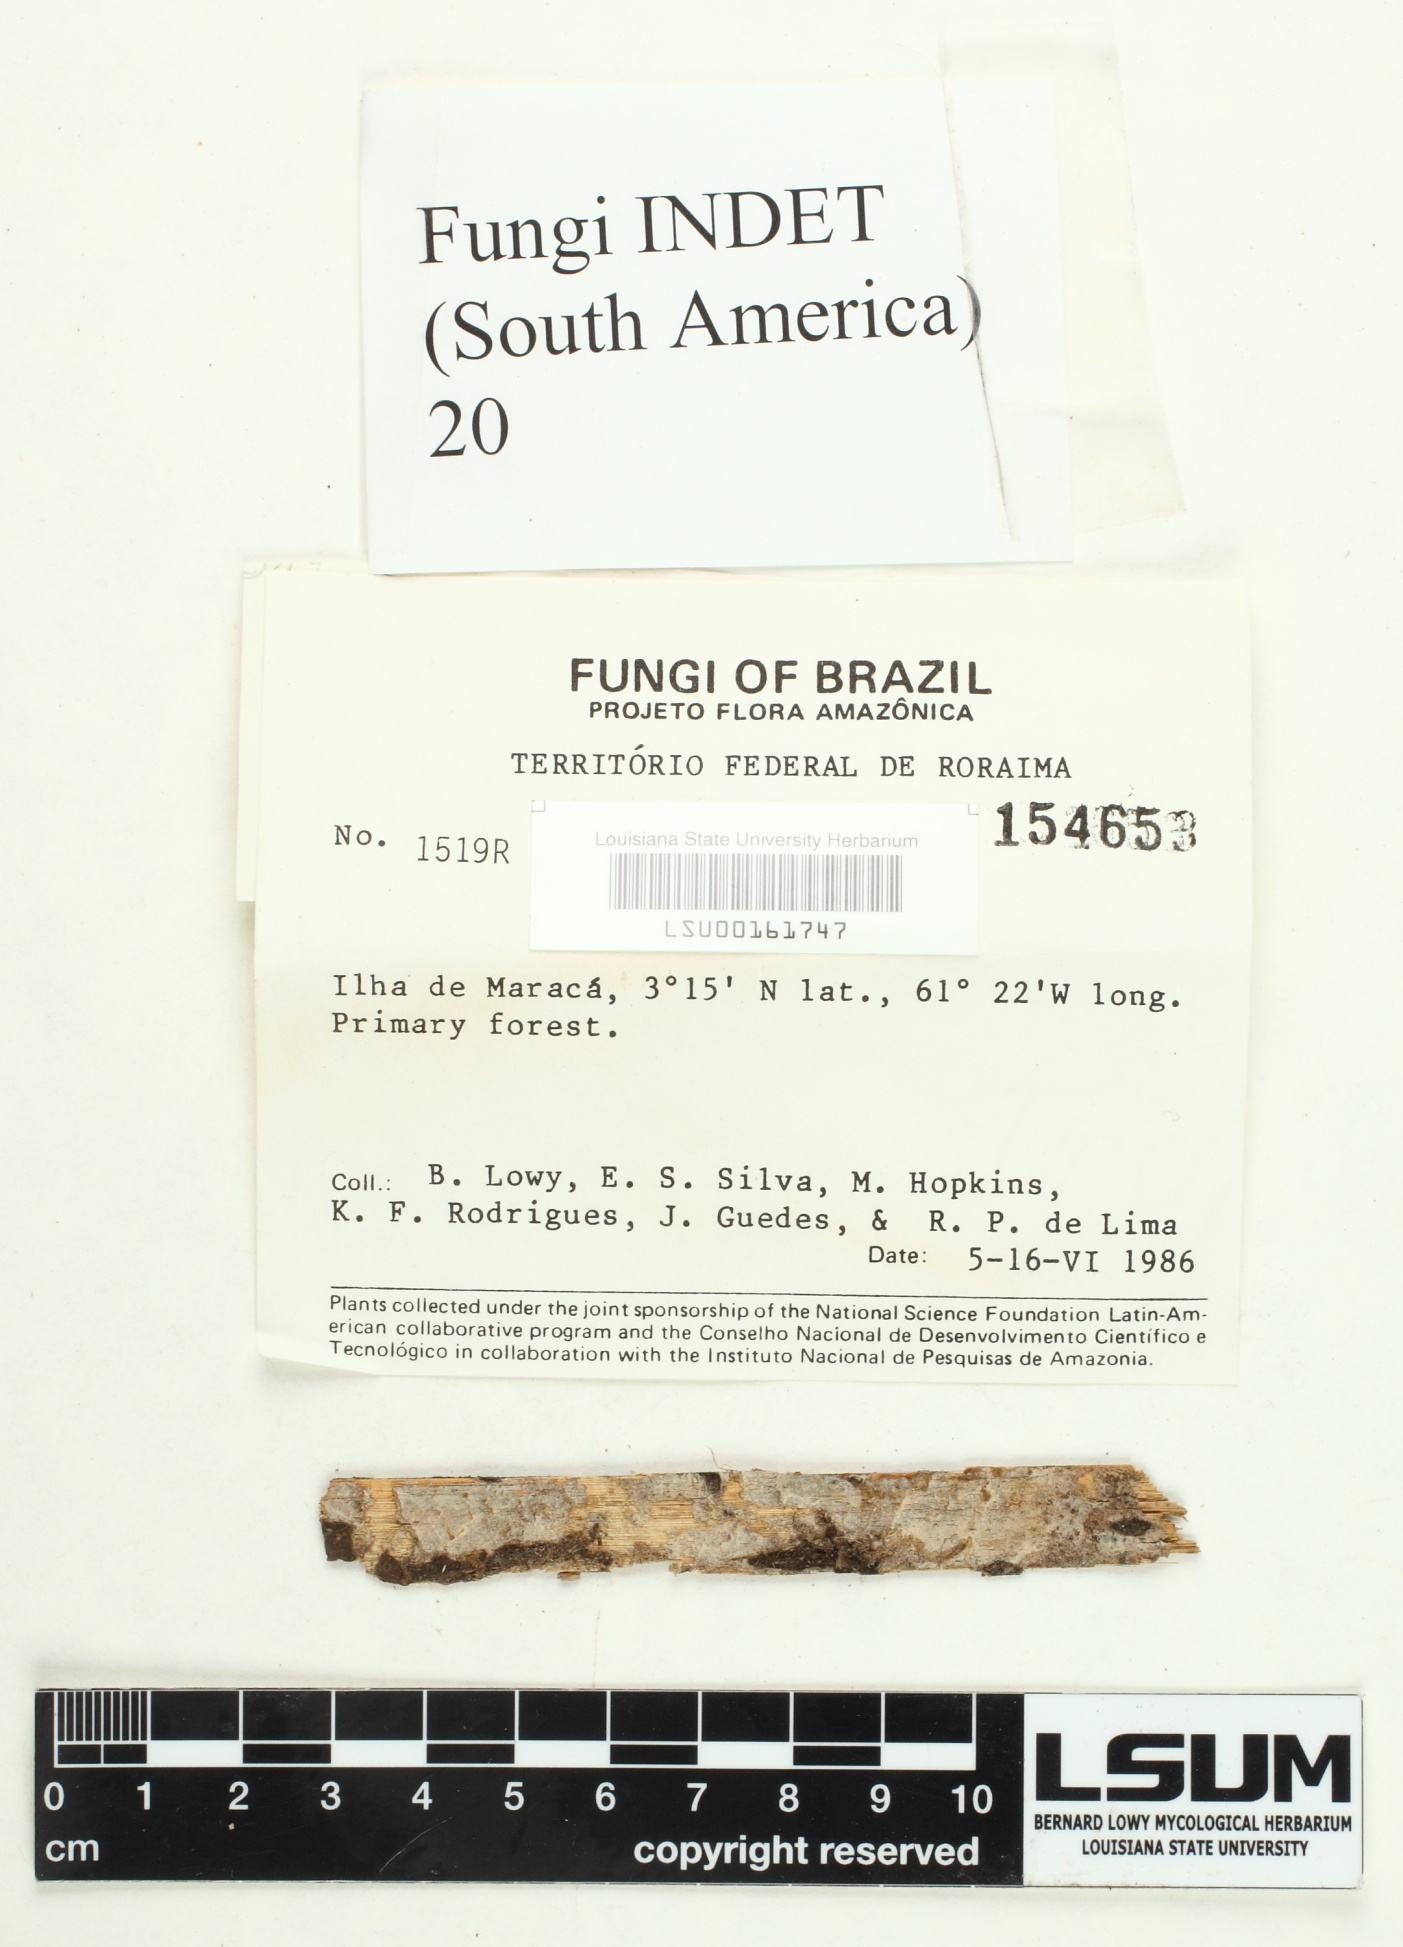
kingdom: Fungi
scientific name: Fungi
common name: Fungi
